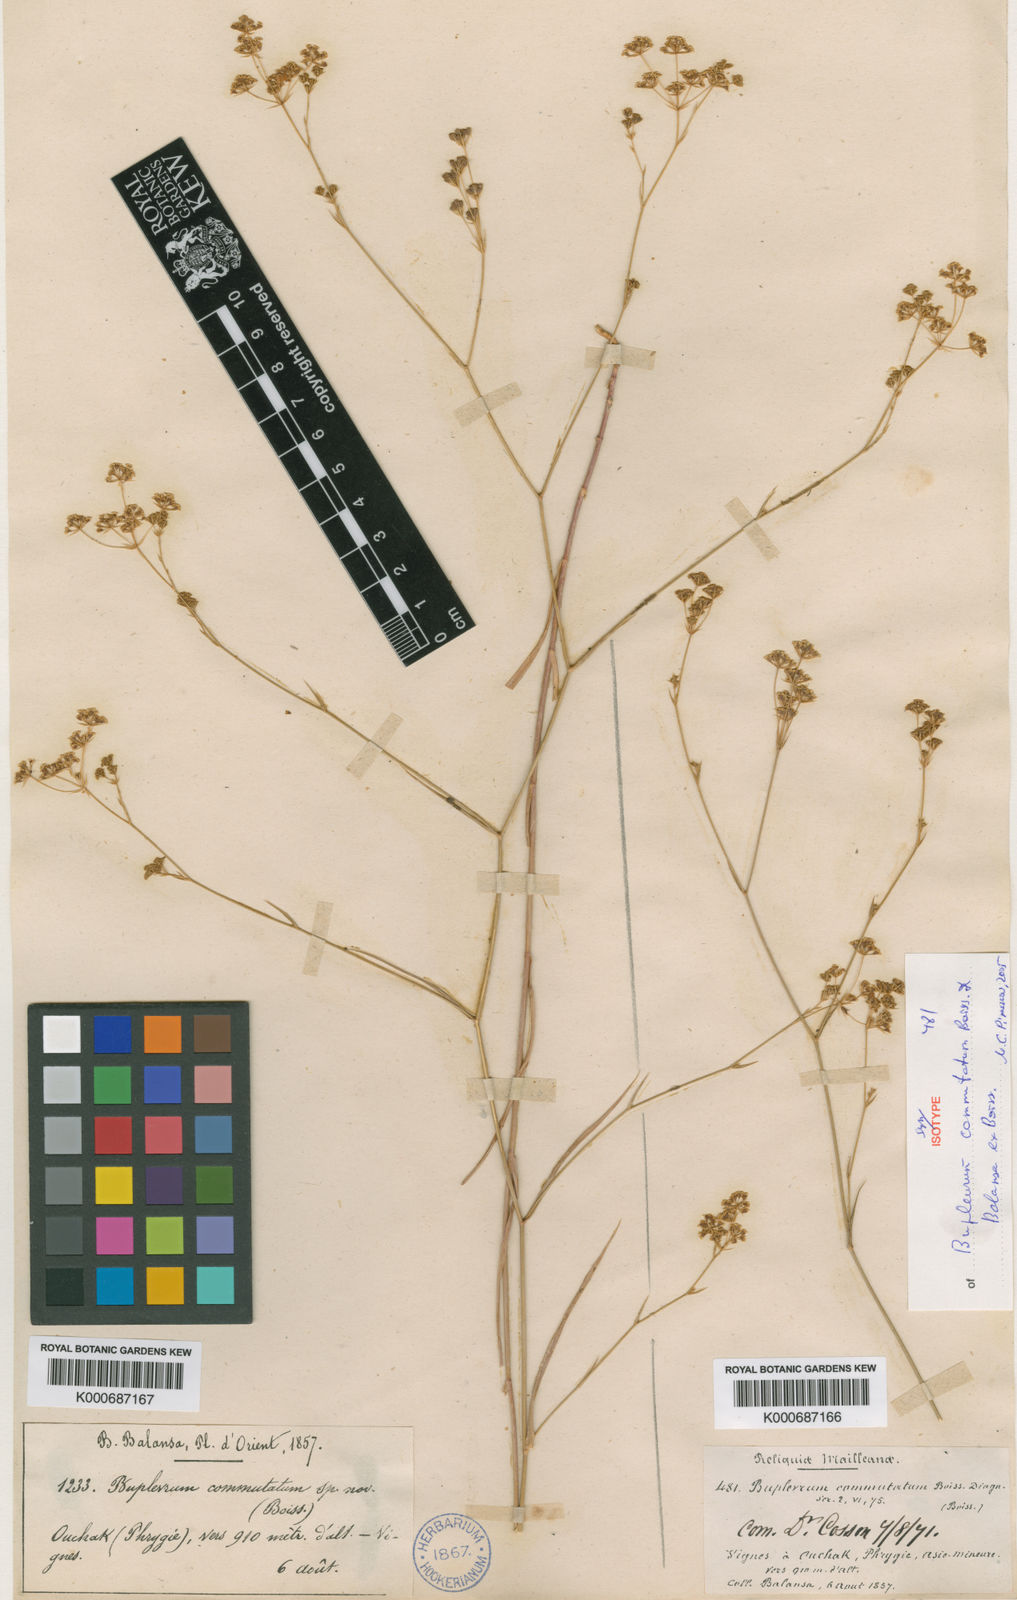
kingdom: Plantae
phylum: Tracheophyta
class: Magnoliopsida
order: Apiales
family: Apiaceae
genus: Bupleurum
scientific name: Bupleurum brevicaule
